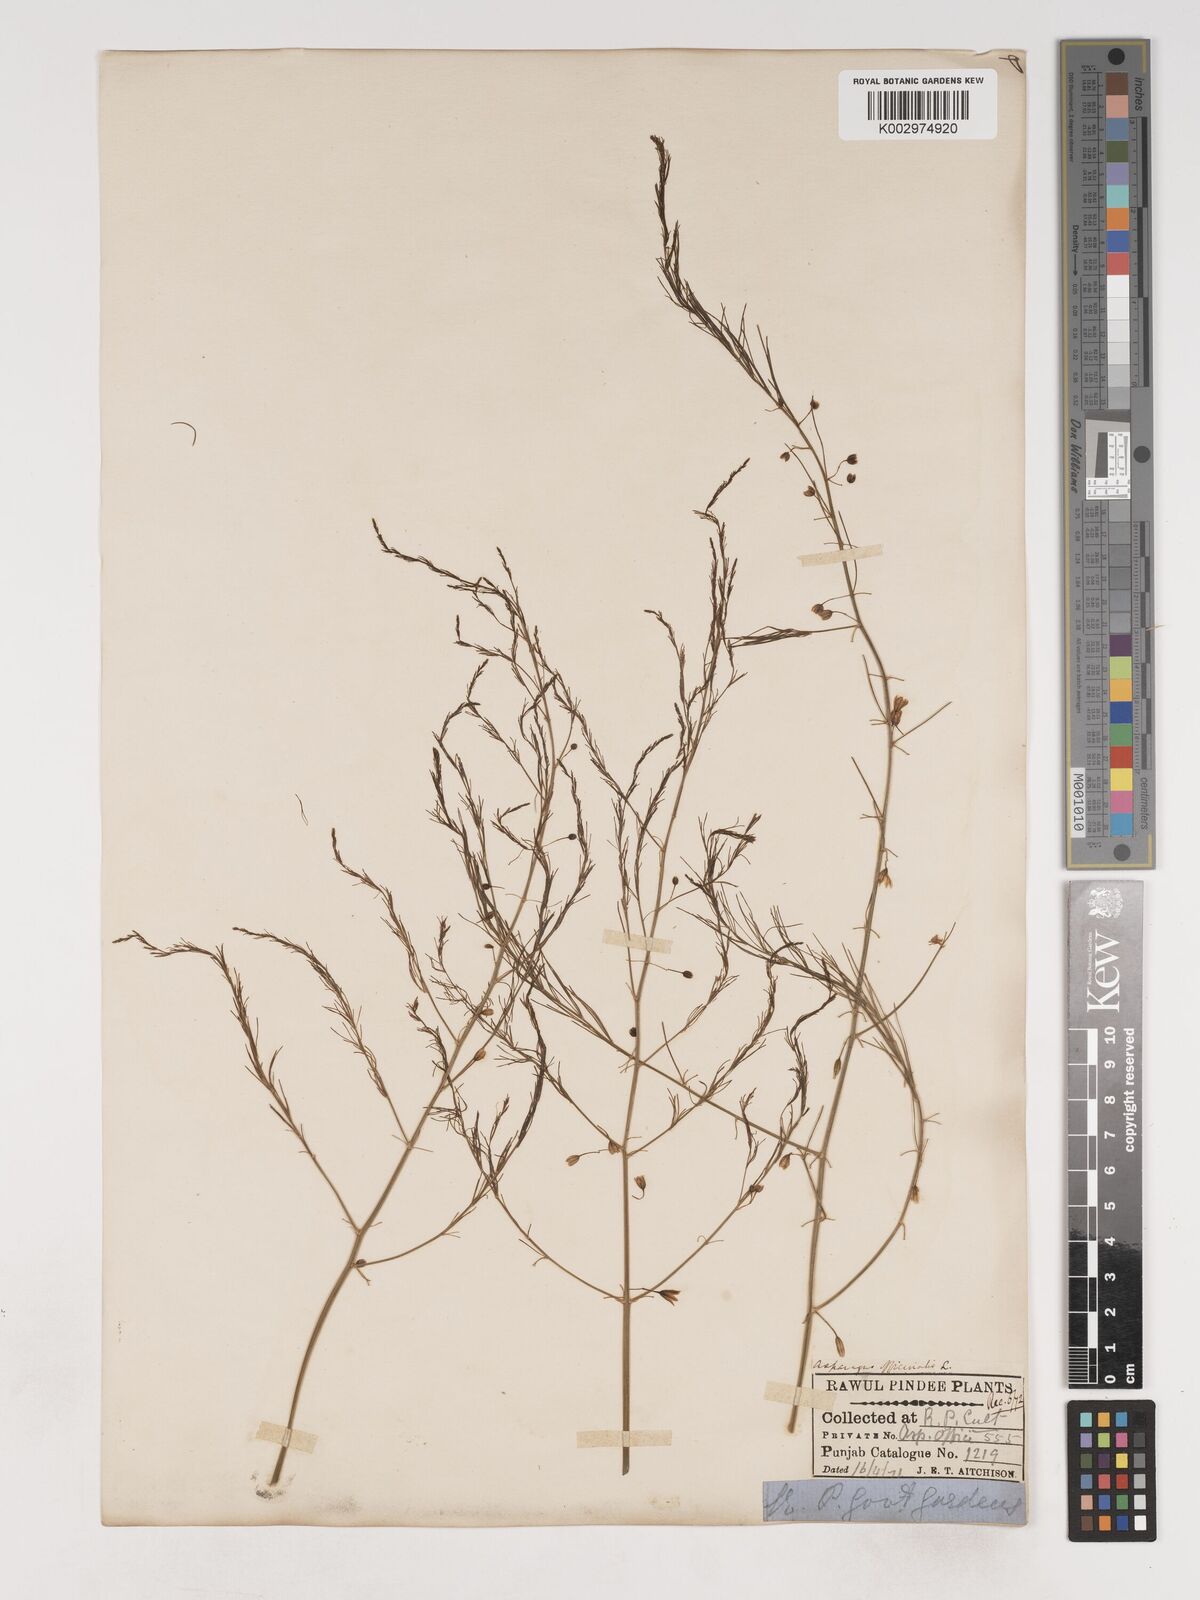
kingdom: Plantae
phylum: Tracheophyta
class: Liliopsida
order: Asparagales
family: Asparagaceae
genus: Asparagus
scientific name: Asparagus officinalis
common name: Garden asparagus
